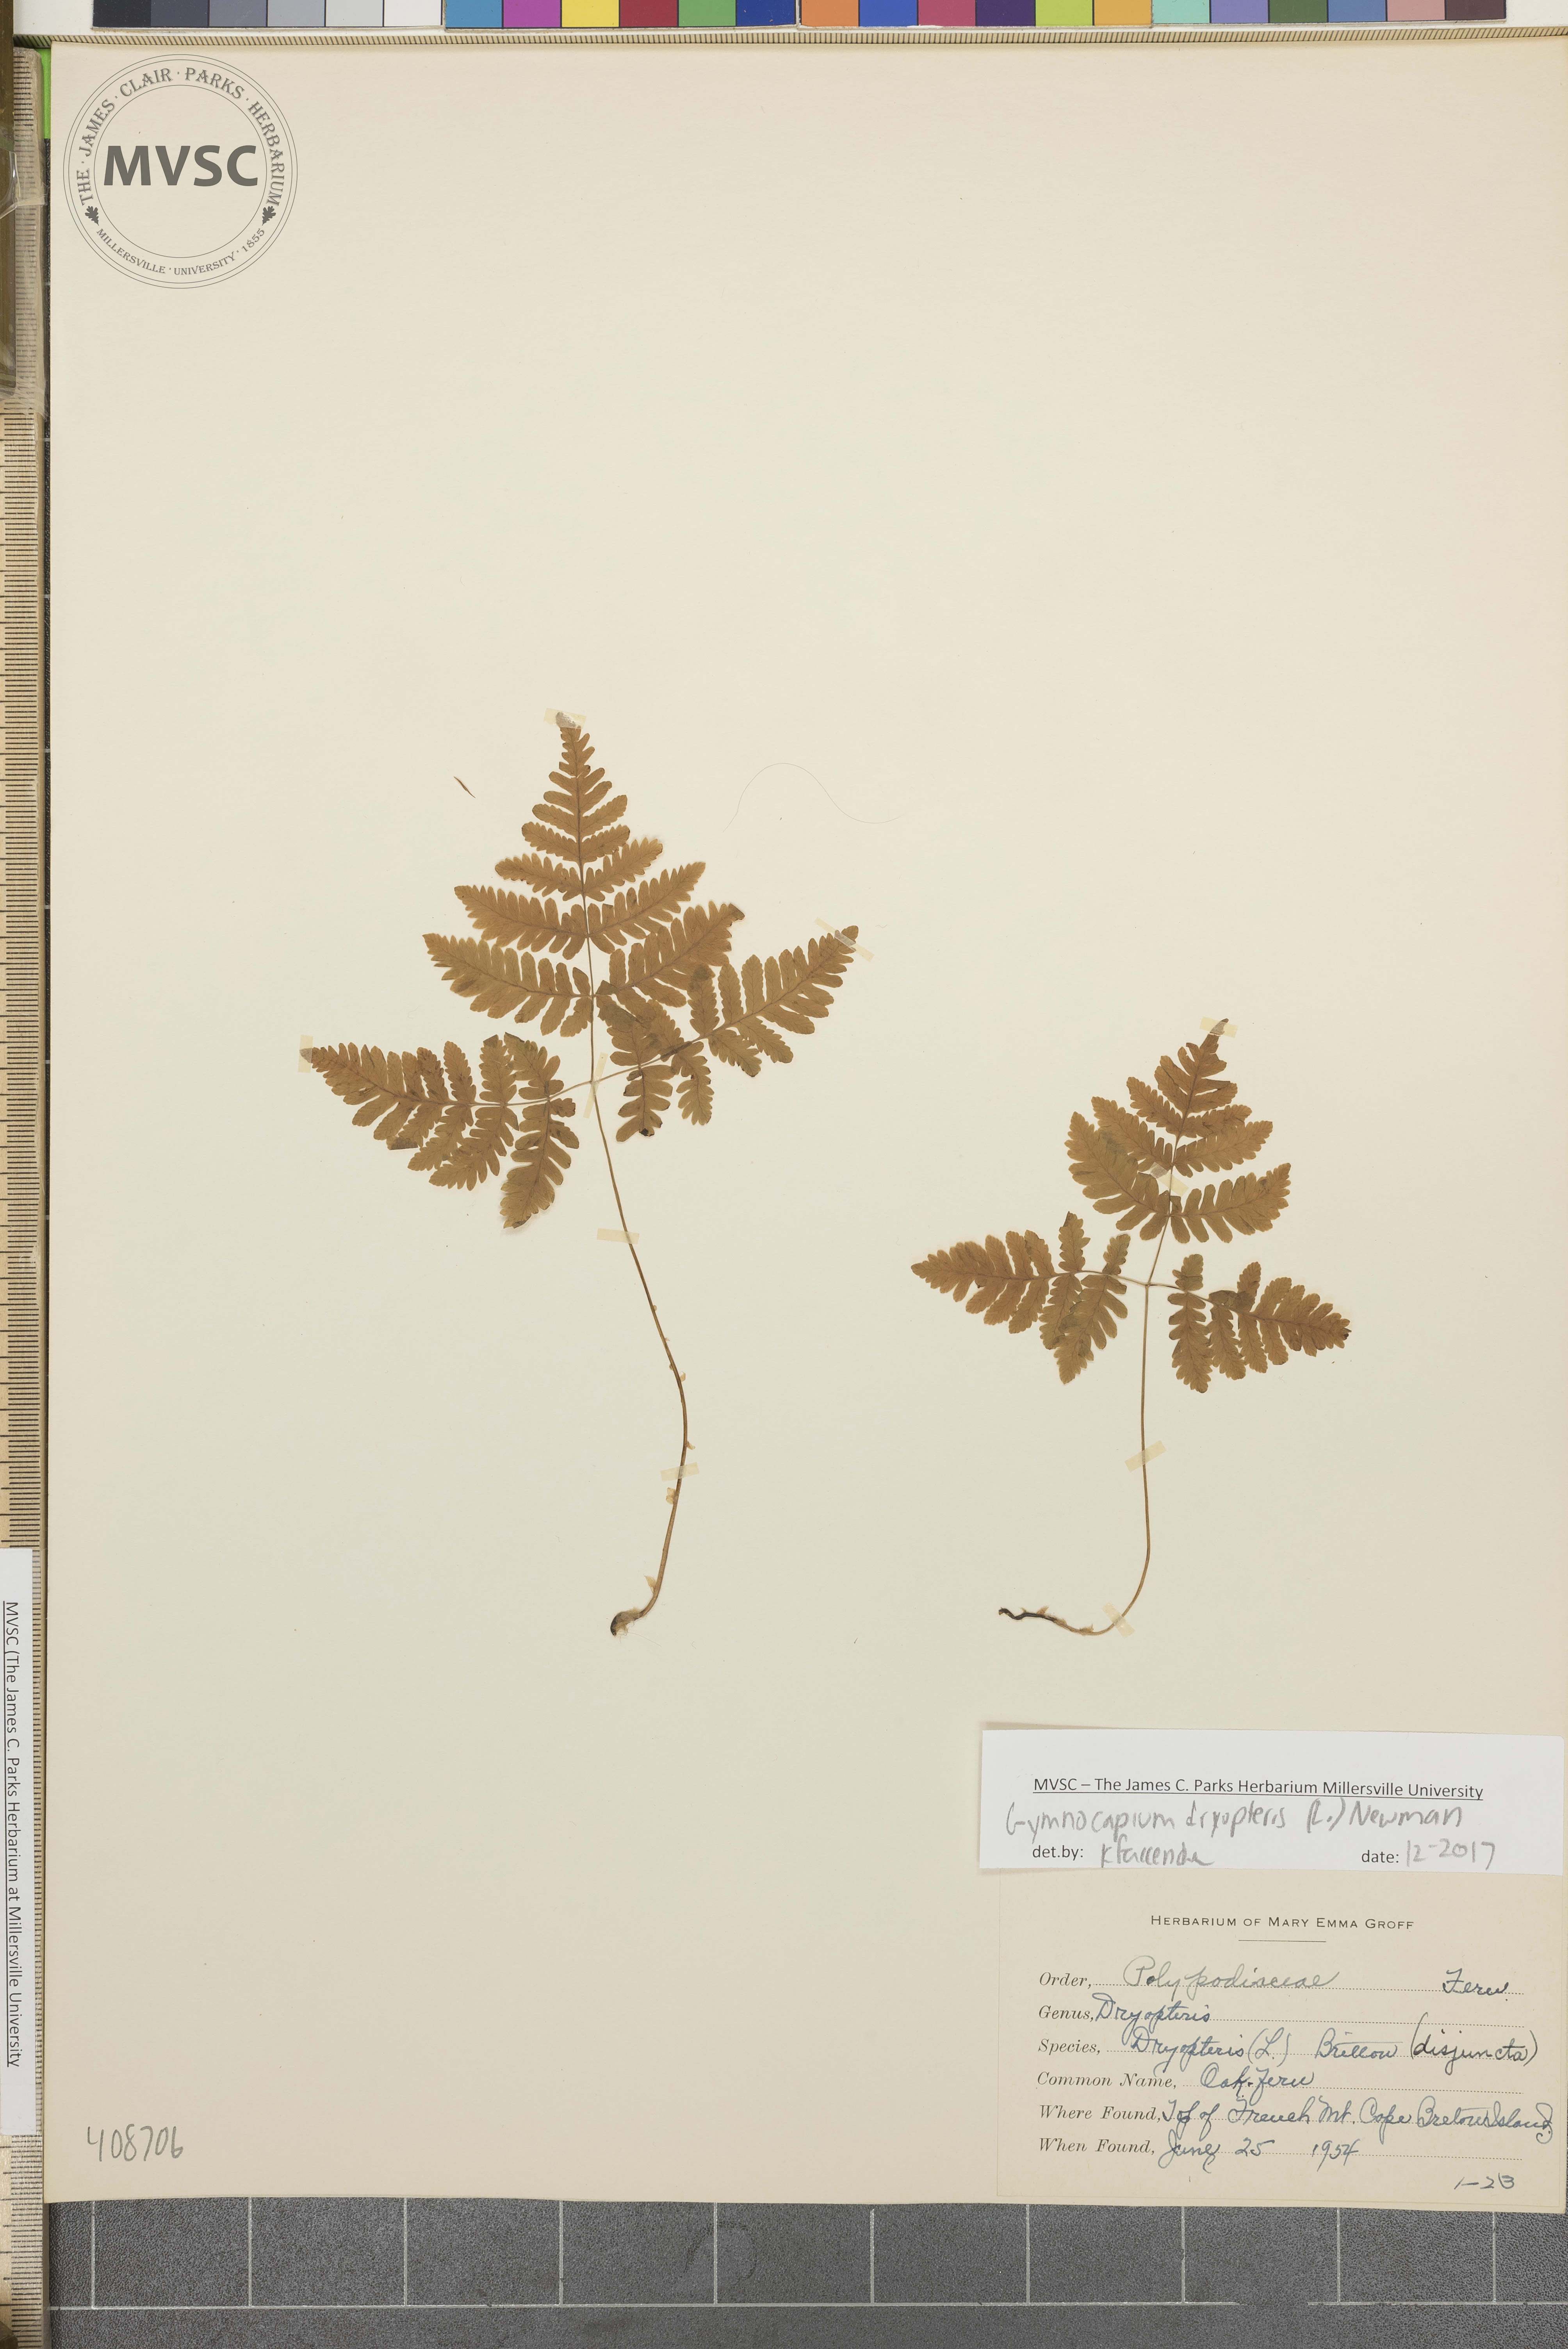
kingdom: Plantae
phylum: Tracheophyta
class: Polypodiopsida
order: Polypodiales
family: Cystopteridaceae
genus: Gymnocarpium
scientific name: Gymnocarpium dryopteris
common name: Oak fern
